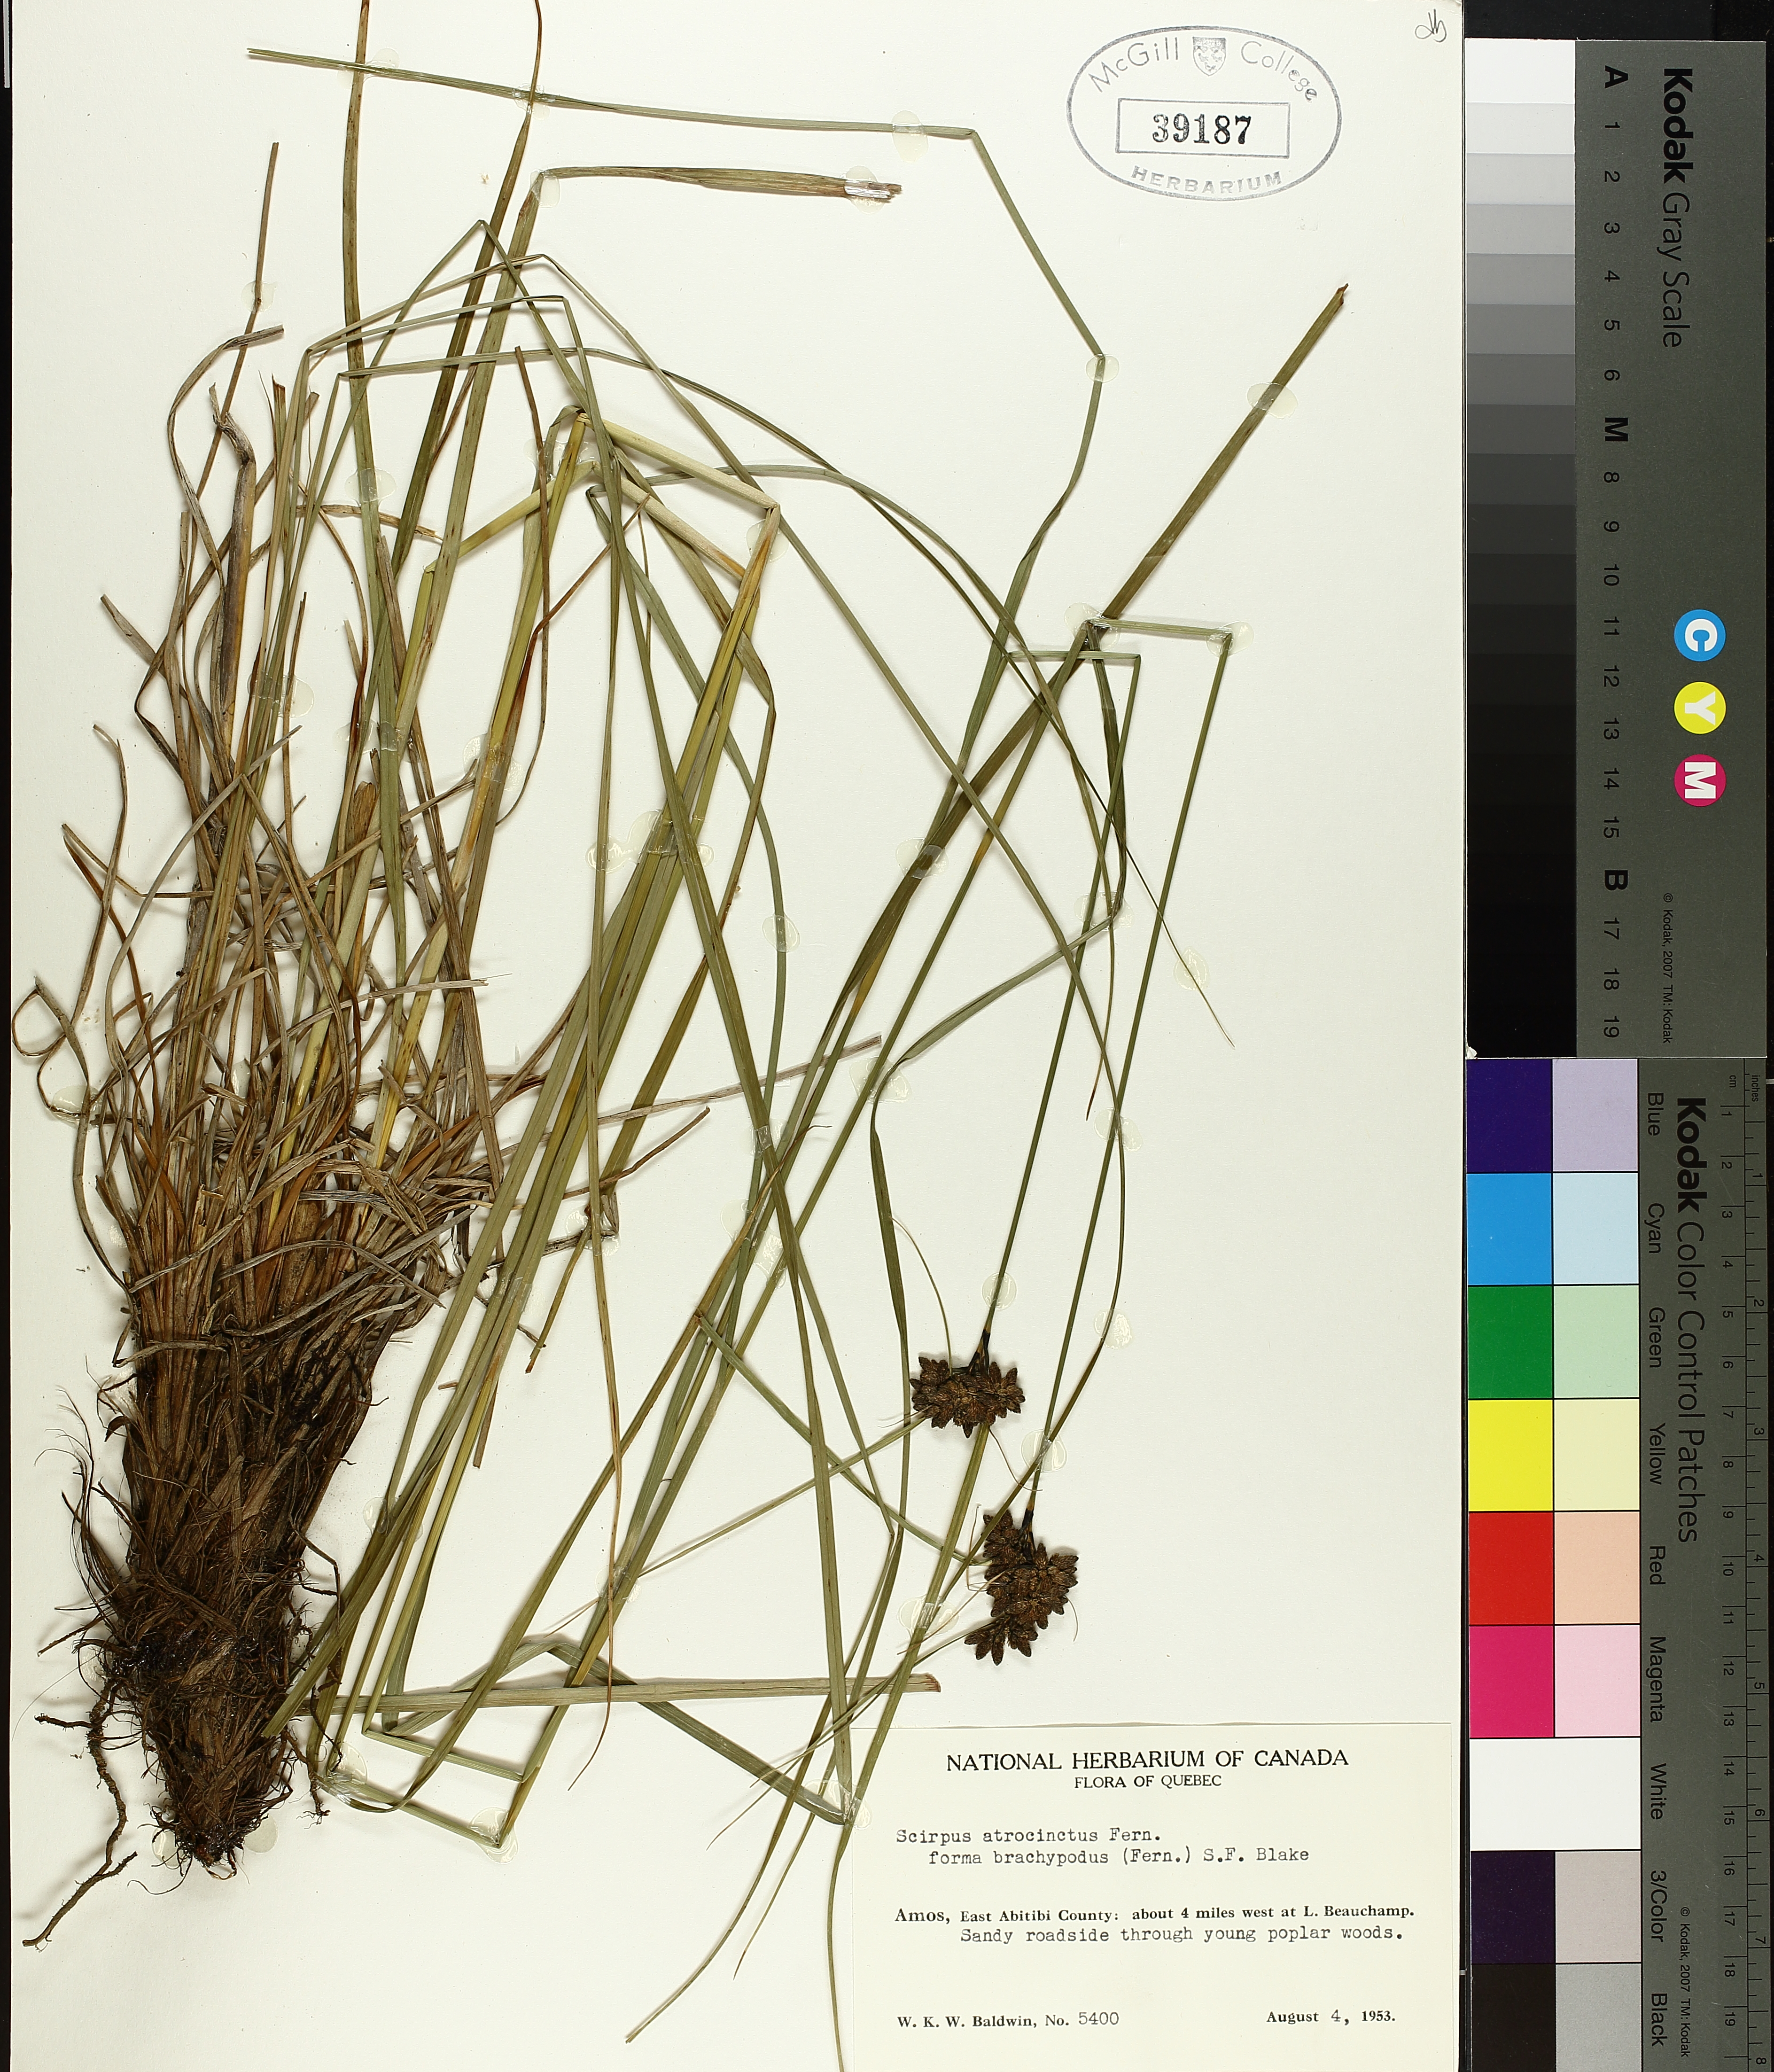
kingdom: Plantae
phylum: Tracheophyta
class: Liliopsida
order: Poales
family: Cyperaceae
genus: Scirpus
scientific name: Scirpus atrocinctus
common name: Black-girdled bulrush
